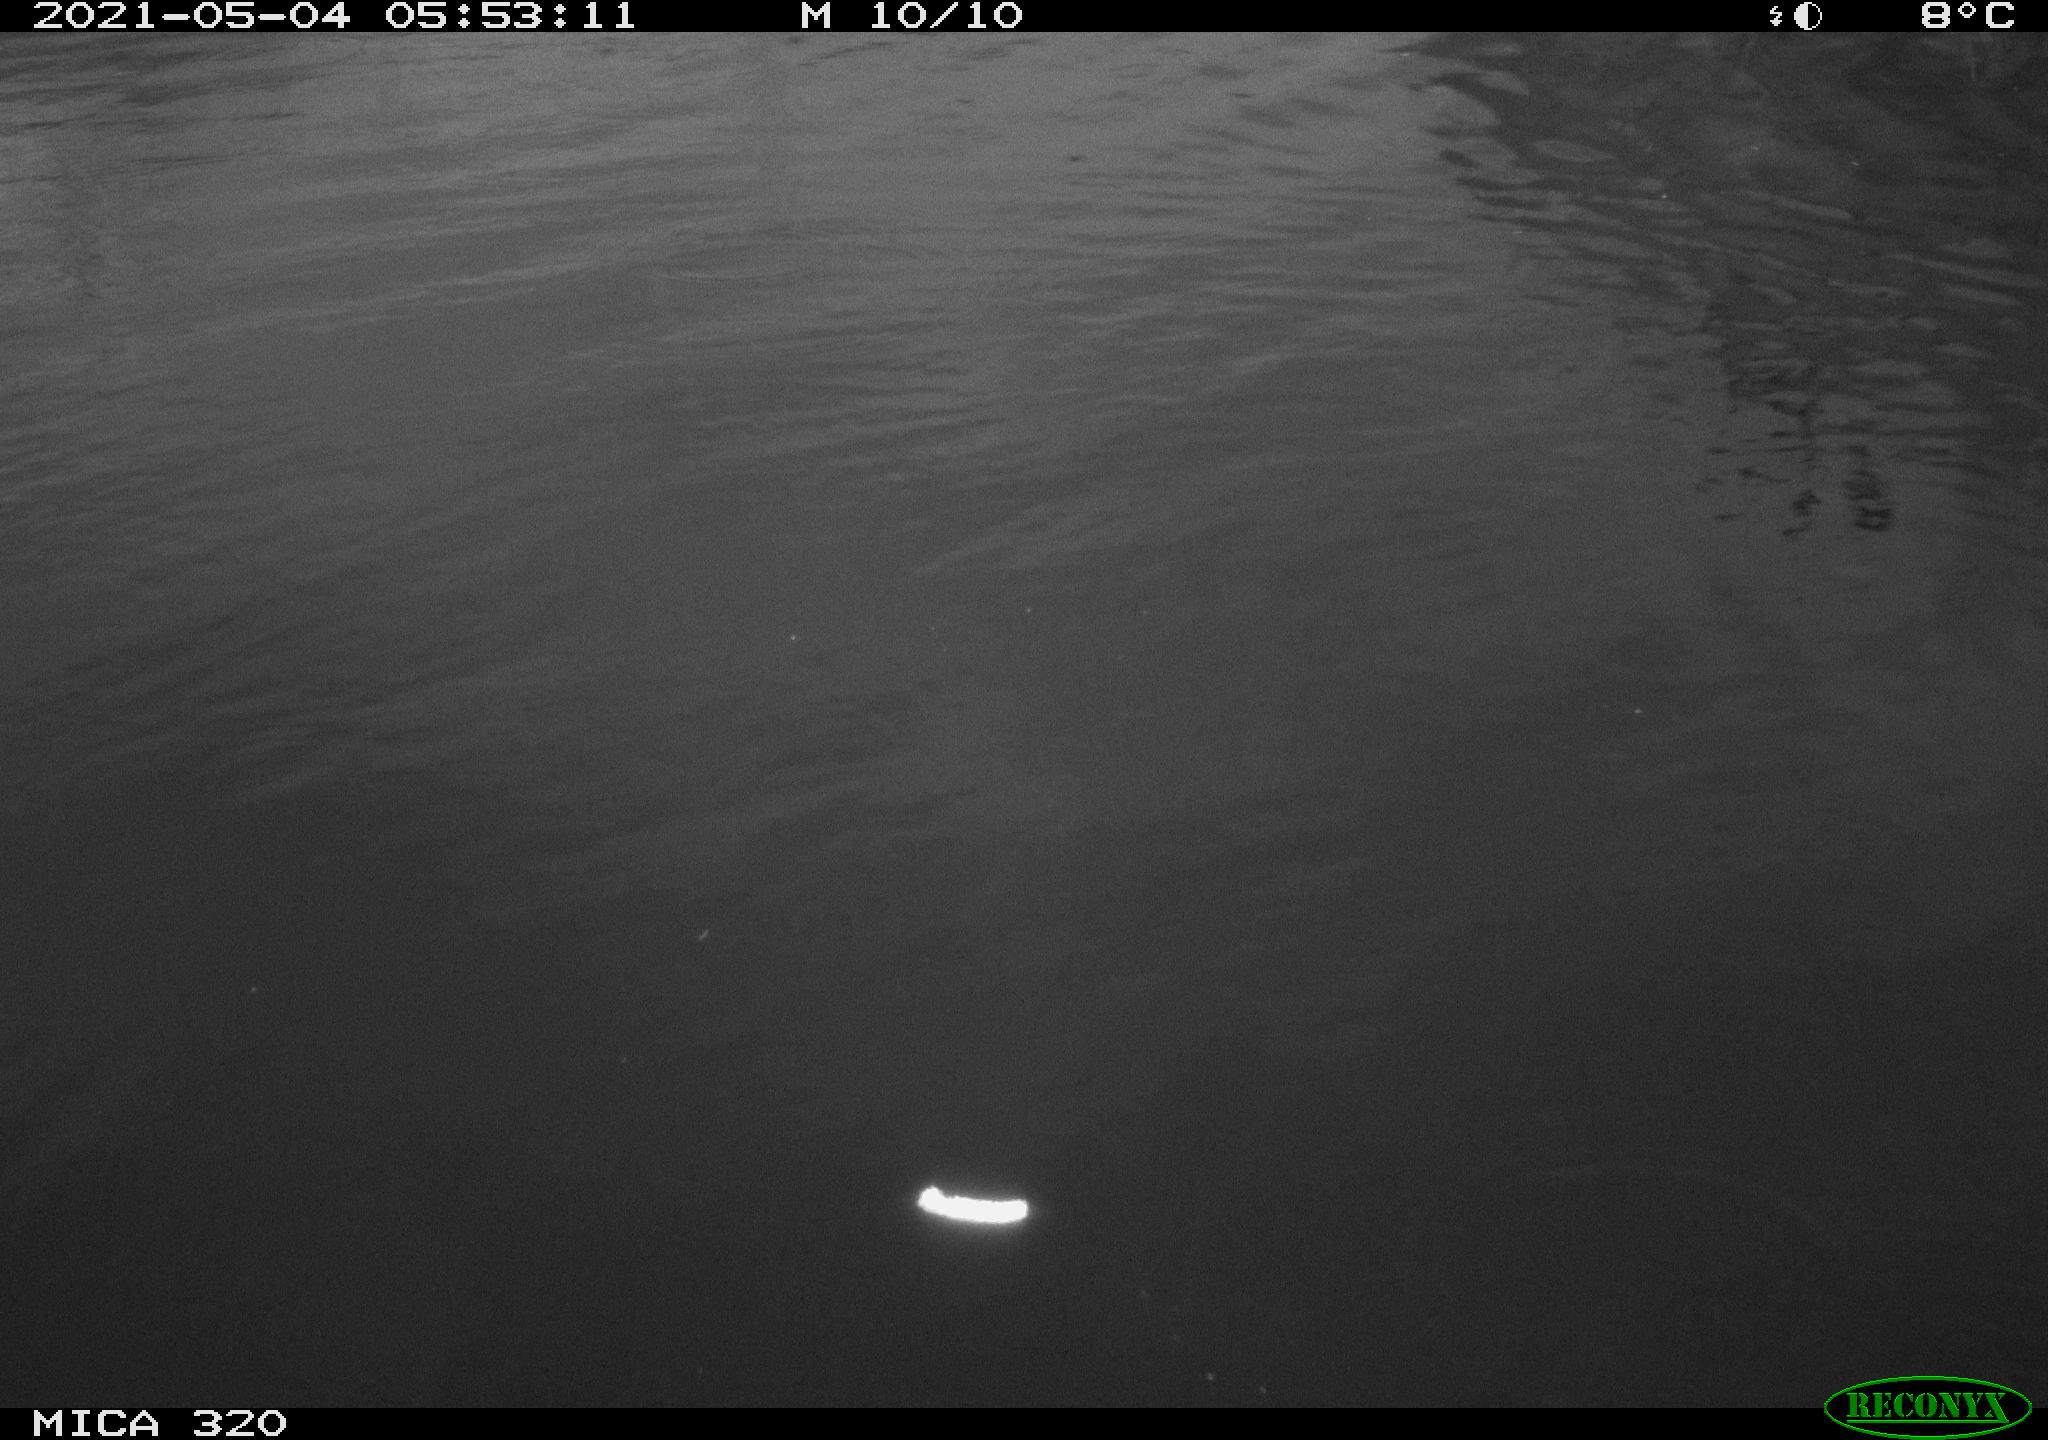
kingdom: Animalia
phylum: Chordata
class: Aves
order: Anseriformes
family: Anatidae
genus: Anas
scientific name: Anas platyrhynchos
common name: Mallard
